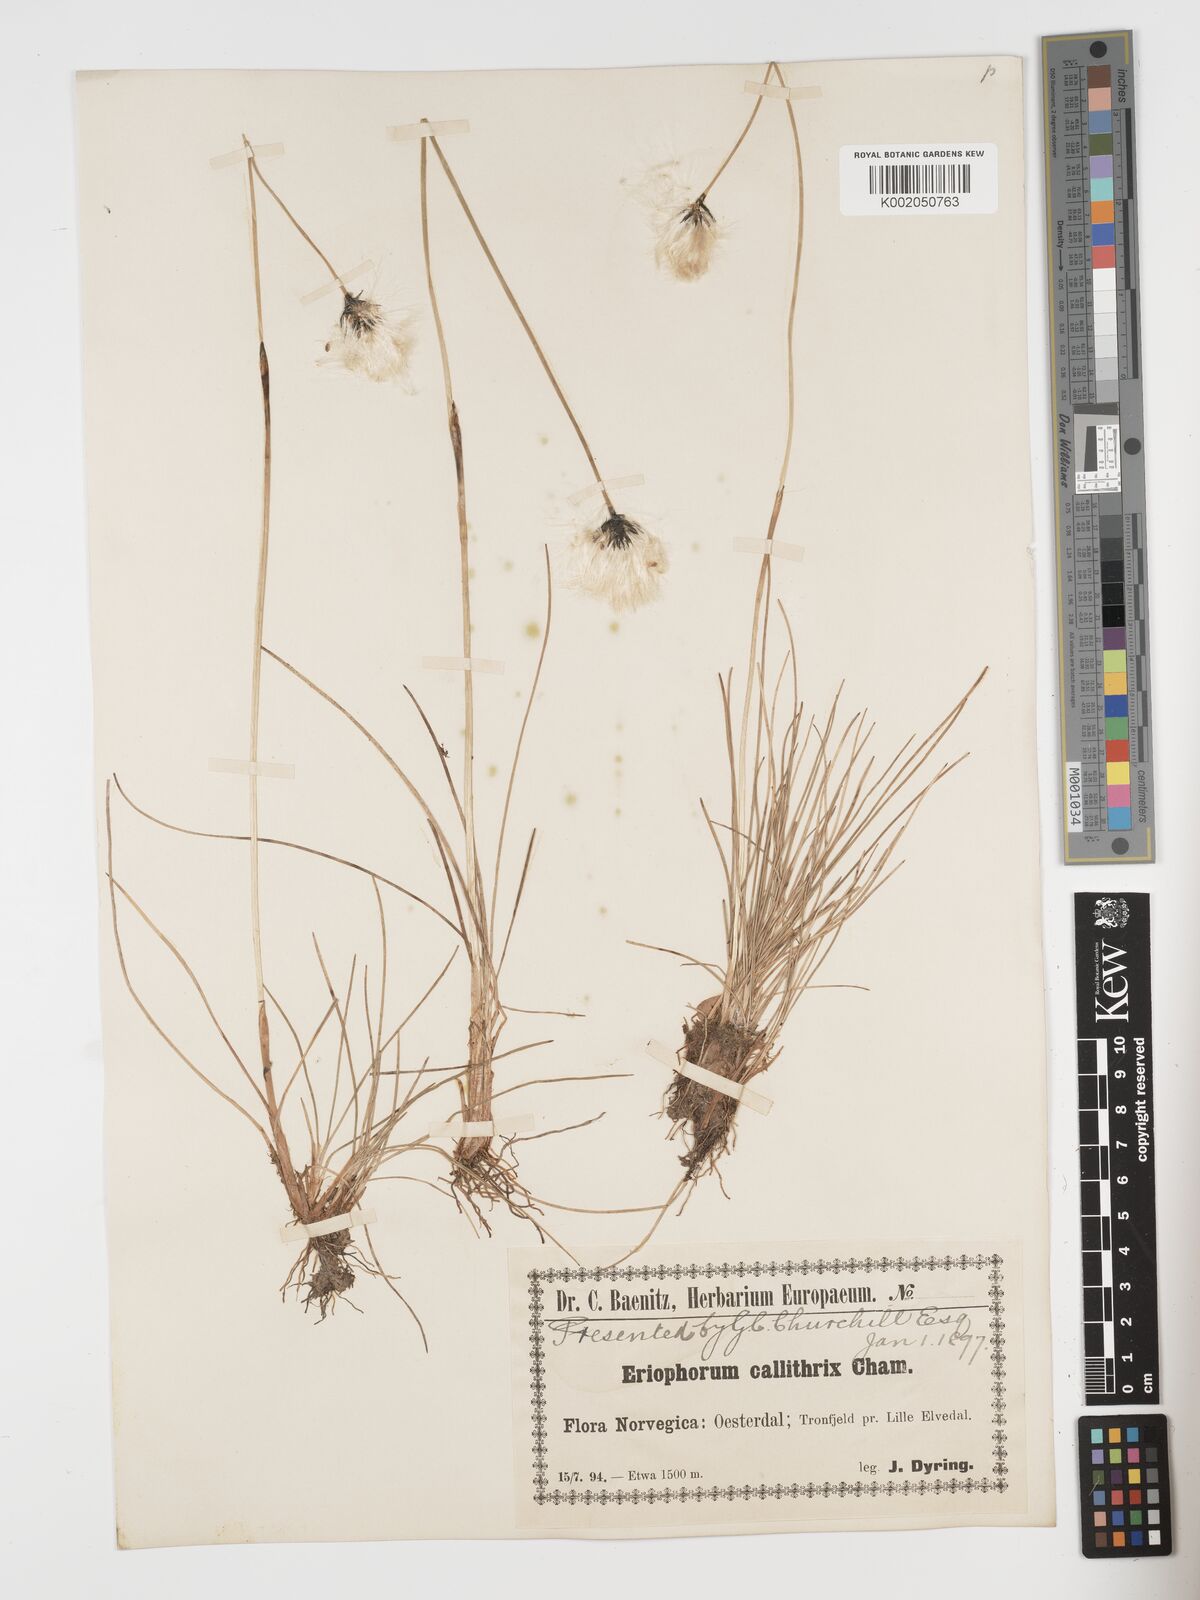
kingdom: Plantae
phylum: Tracheophyta
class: Liliopsida
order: Poales
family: Cyperaceae
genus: Eriophorum
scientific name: Eriophorum brachyantherum
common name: Closed-sheathed cottongrass
